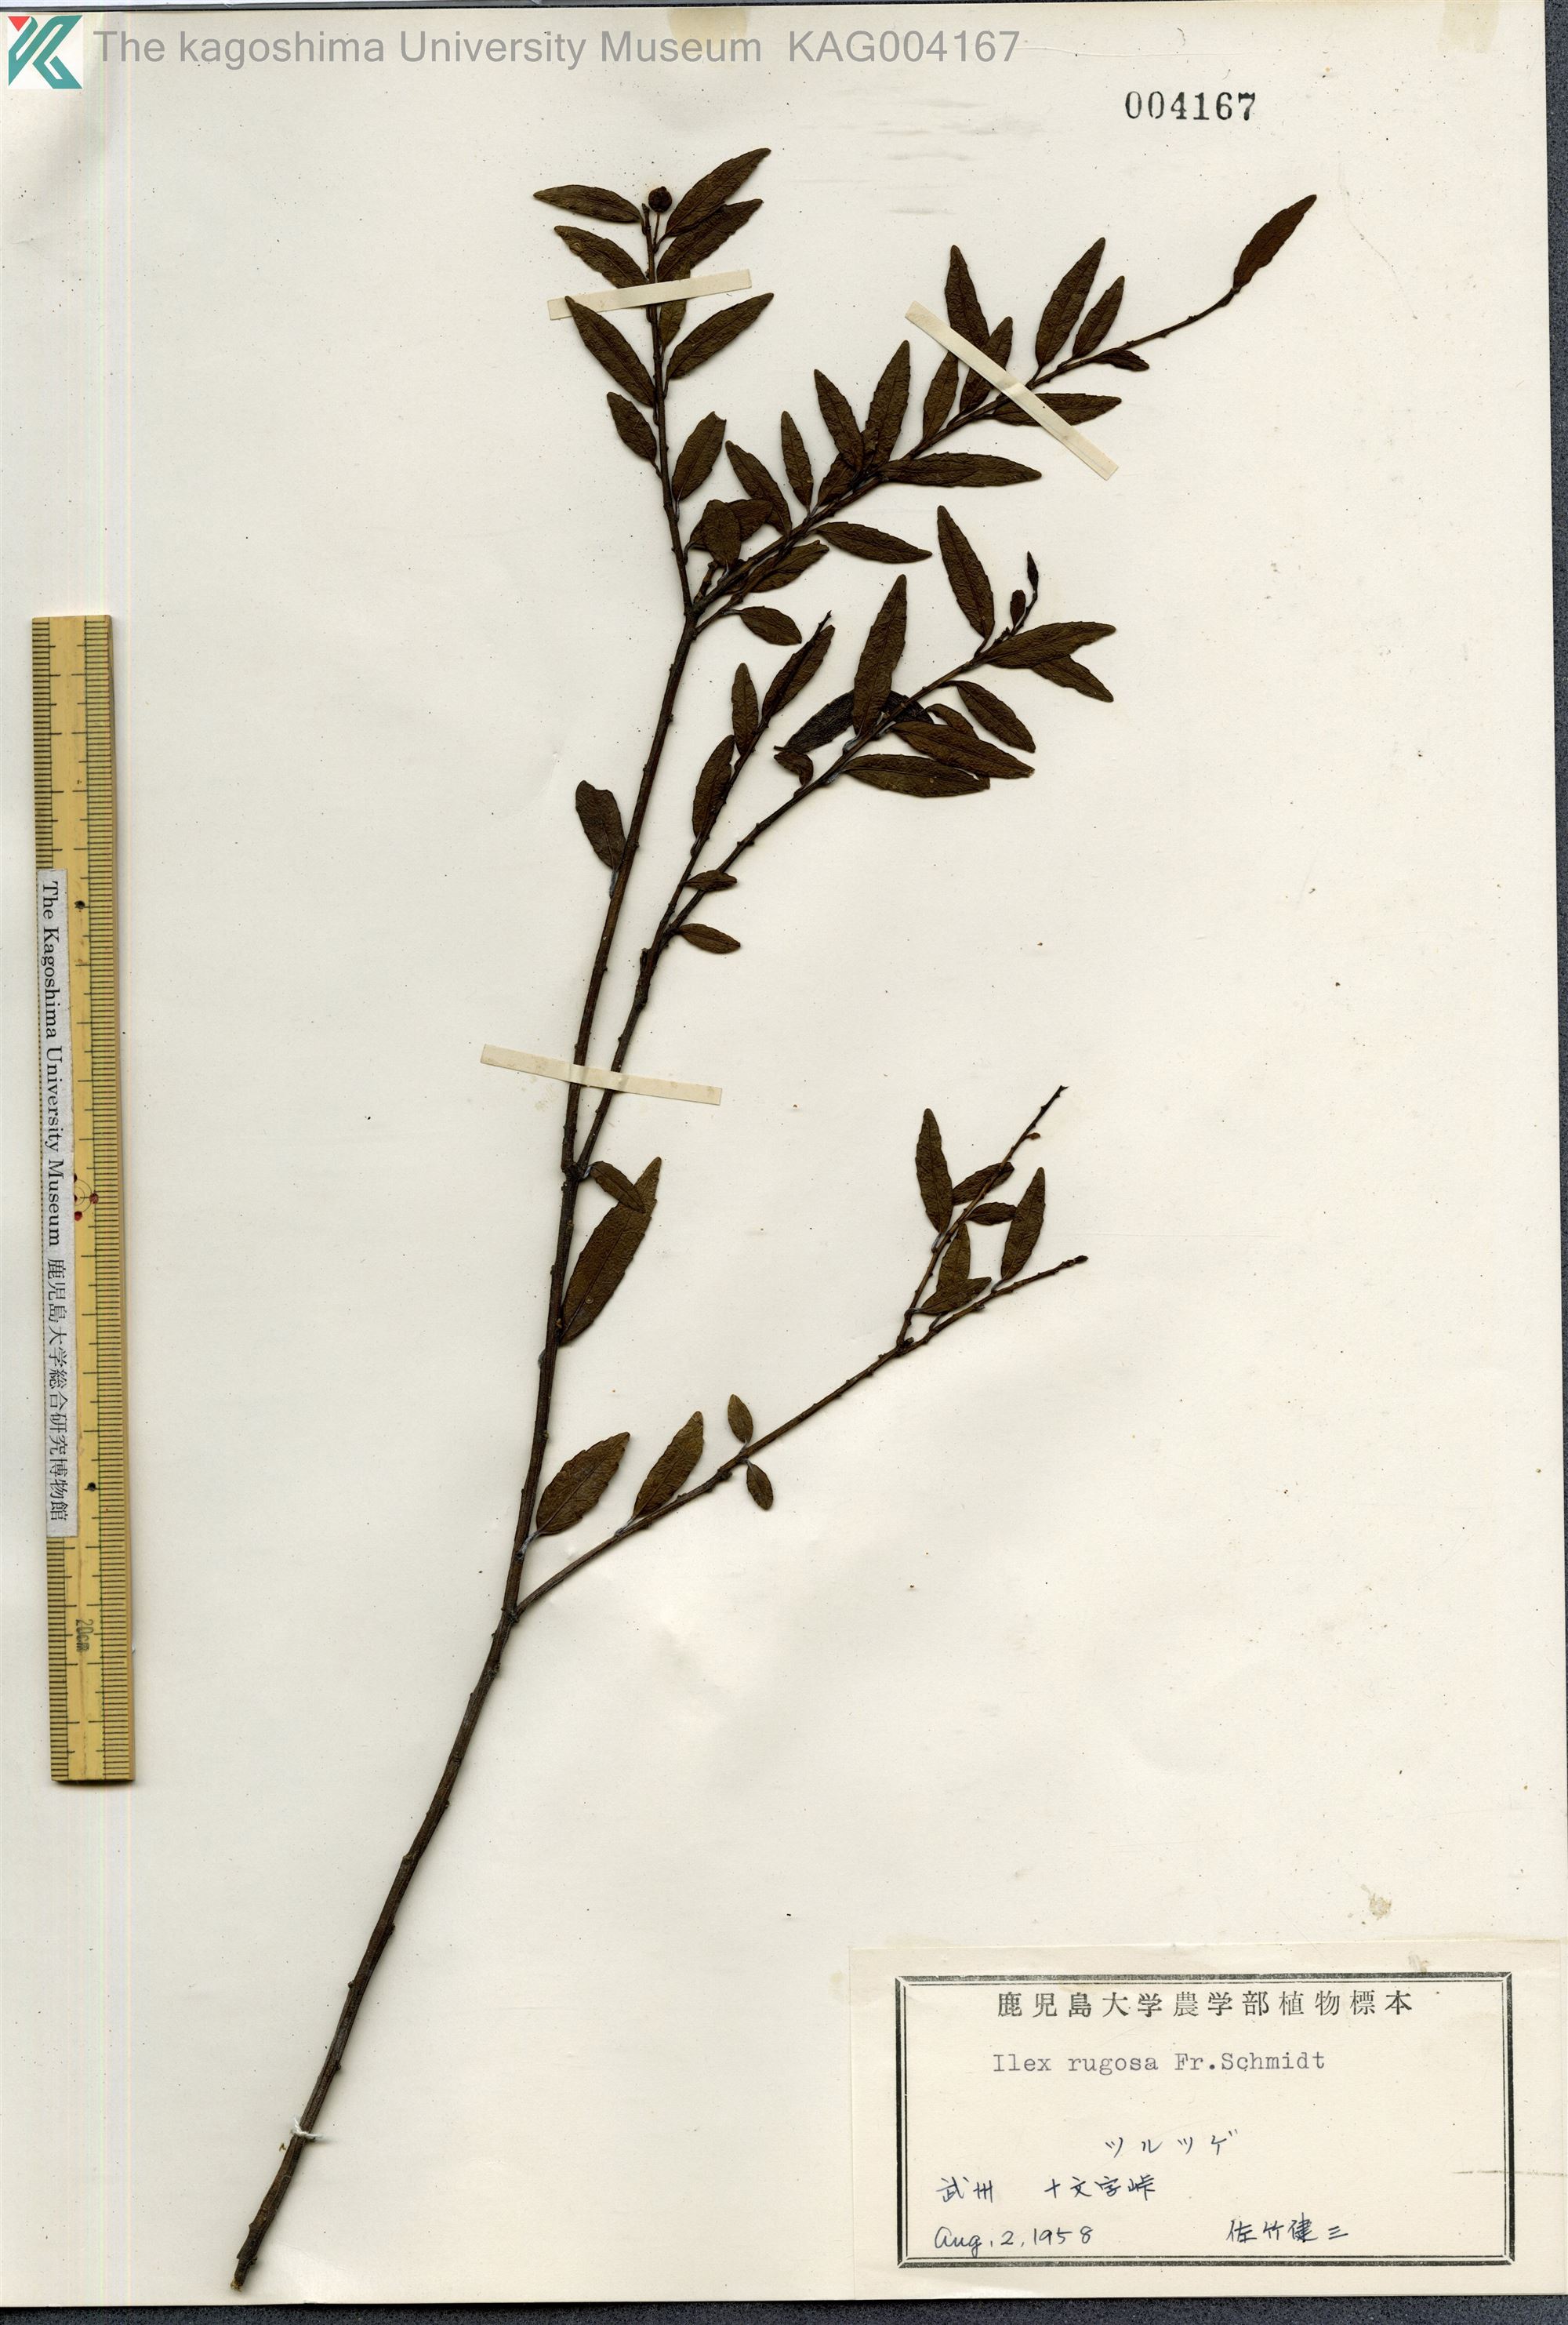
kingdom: Plantae
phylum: Tracheophyta
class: Magnoliopsida
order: Aquifoliales
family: Aquifoliaceae
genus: Ilex
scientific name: Ilex rugosa
